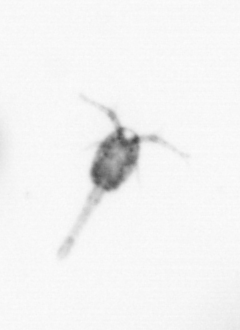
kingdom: Animalia
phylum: Arthropoda
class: Copepoda
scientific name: Copepoda
